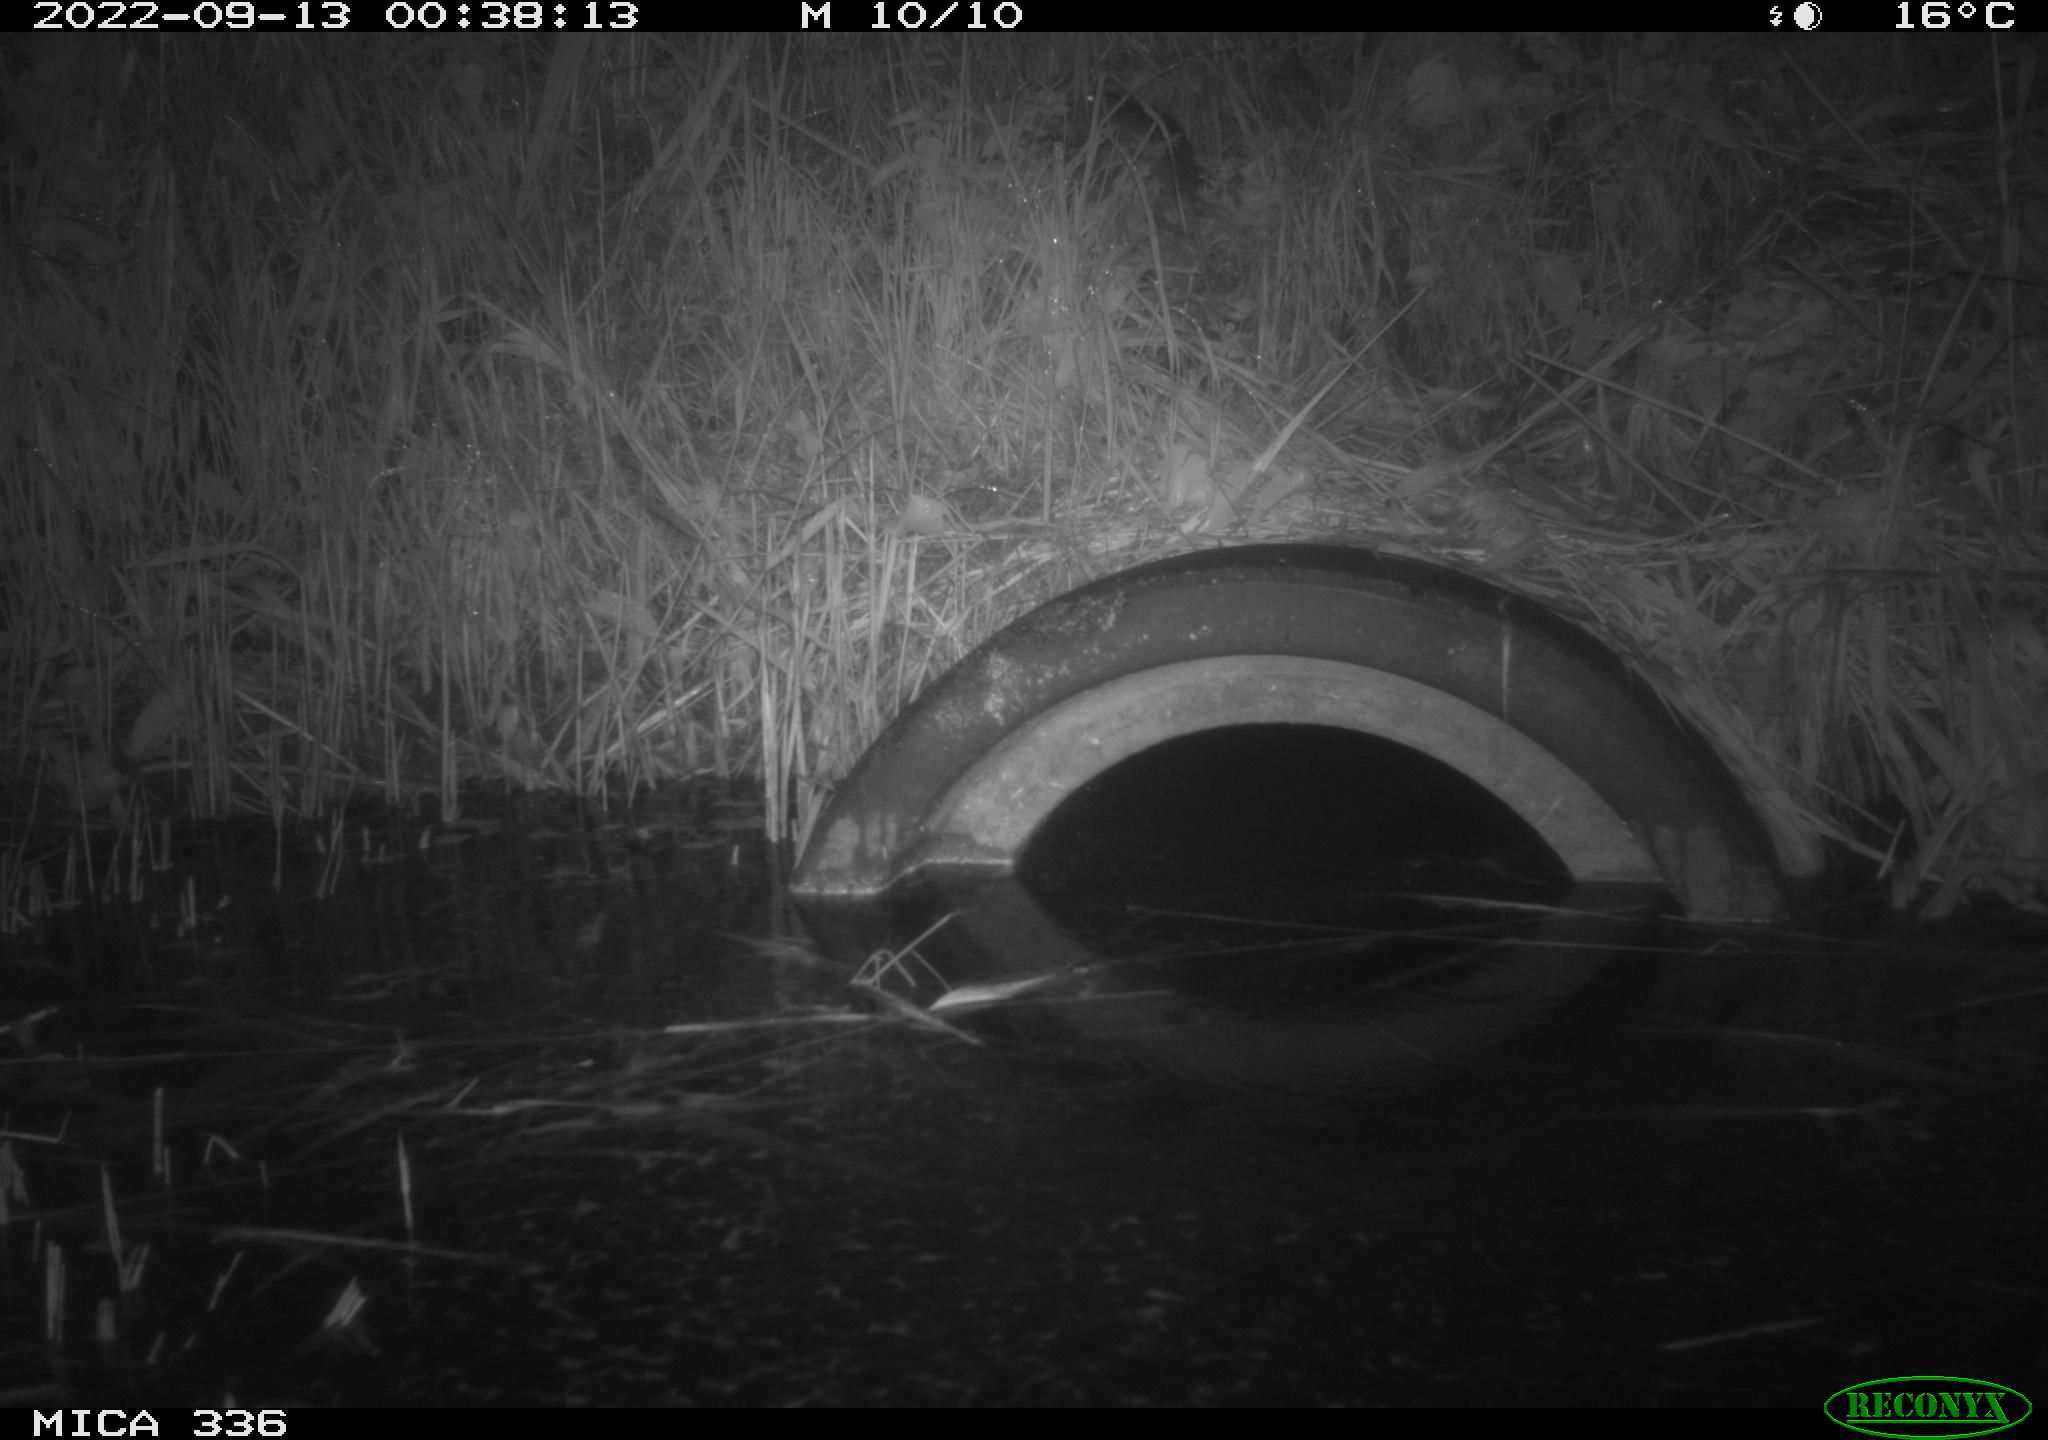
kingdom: Animalia
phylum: Chordata
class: Mammalia
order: Rodentia
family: Muridae
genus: Rattus
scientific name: Rattus norvegicus
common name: Brown rat
